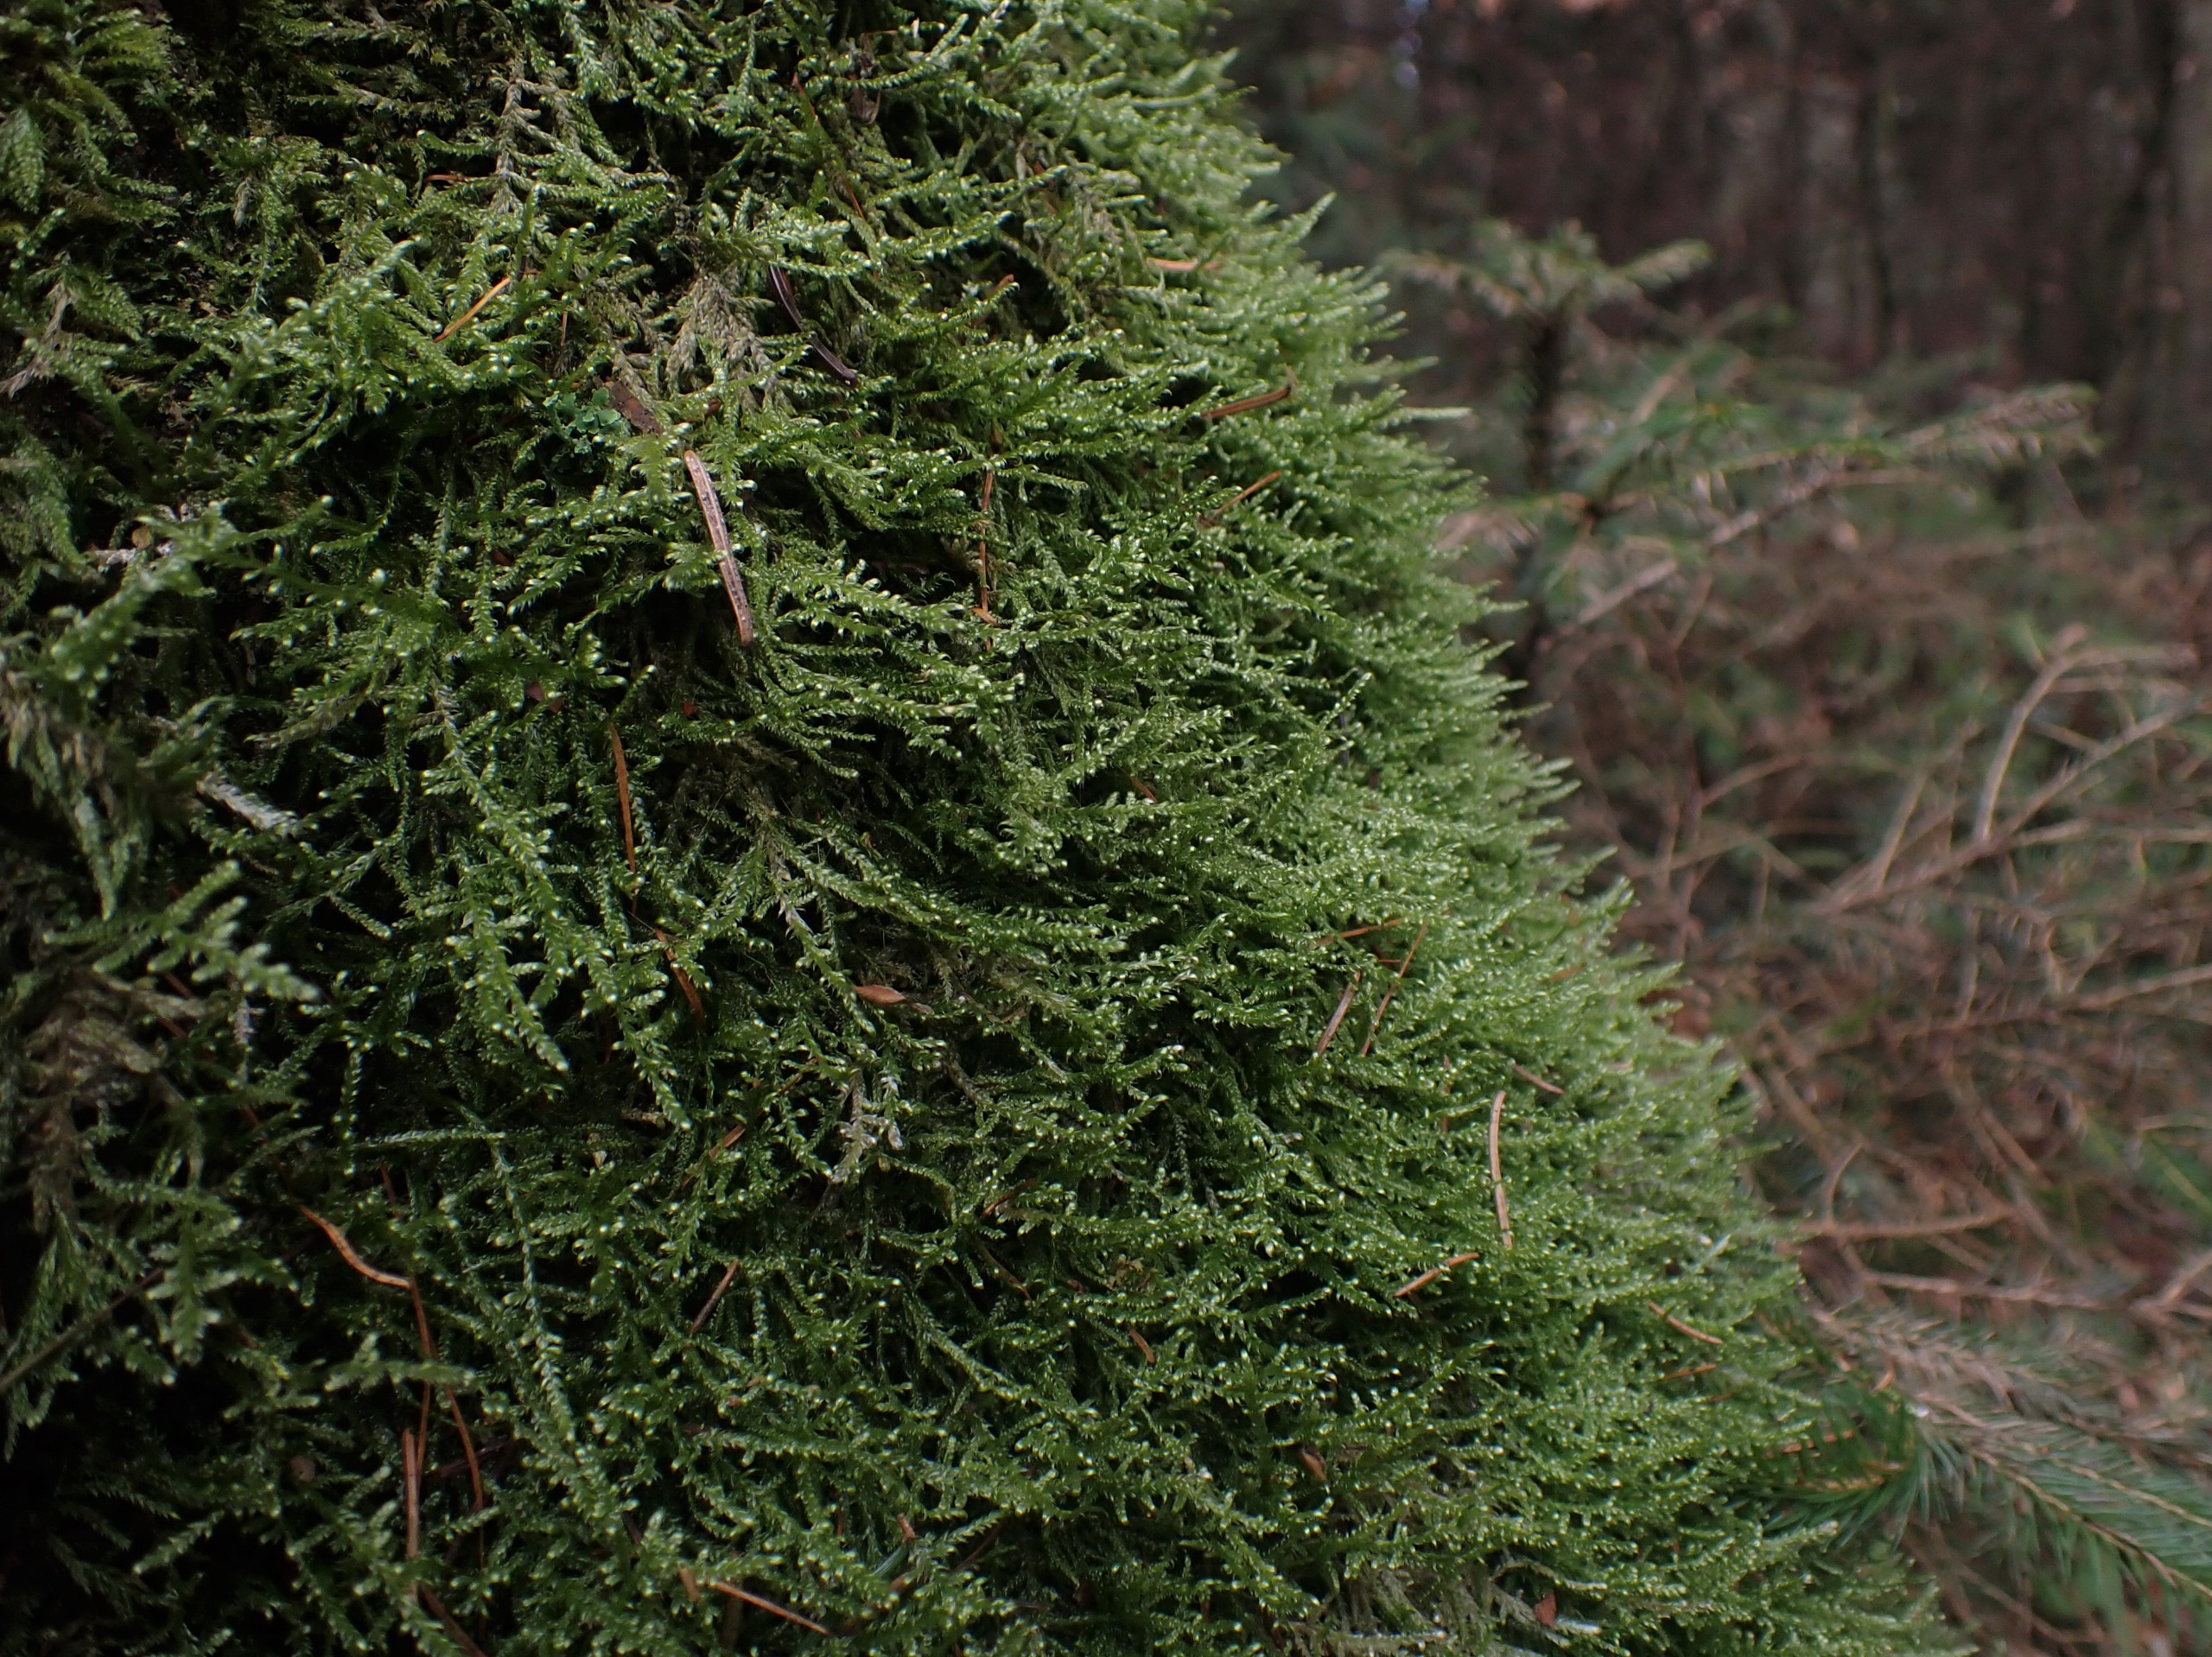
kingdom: Plantae
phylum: Bryophyta
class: Bryopsida
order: Hypnales
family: Hypnaceae
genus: Hypnum
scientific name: Hypnum jutlandicum
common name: Hede-cypresmos
